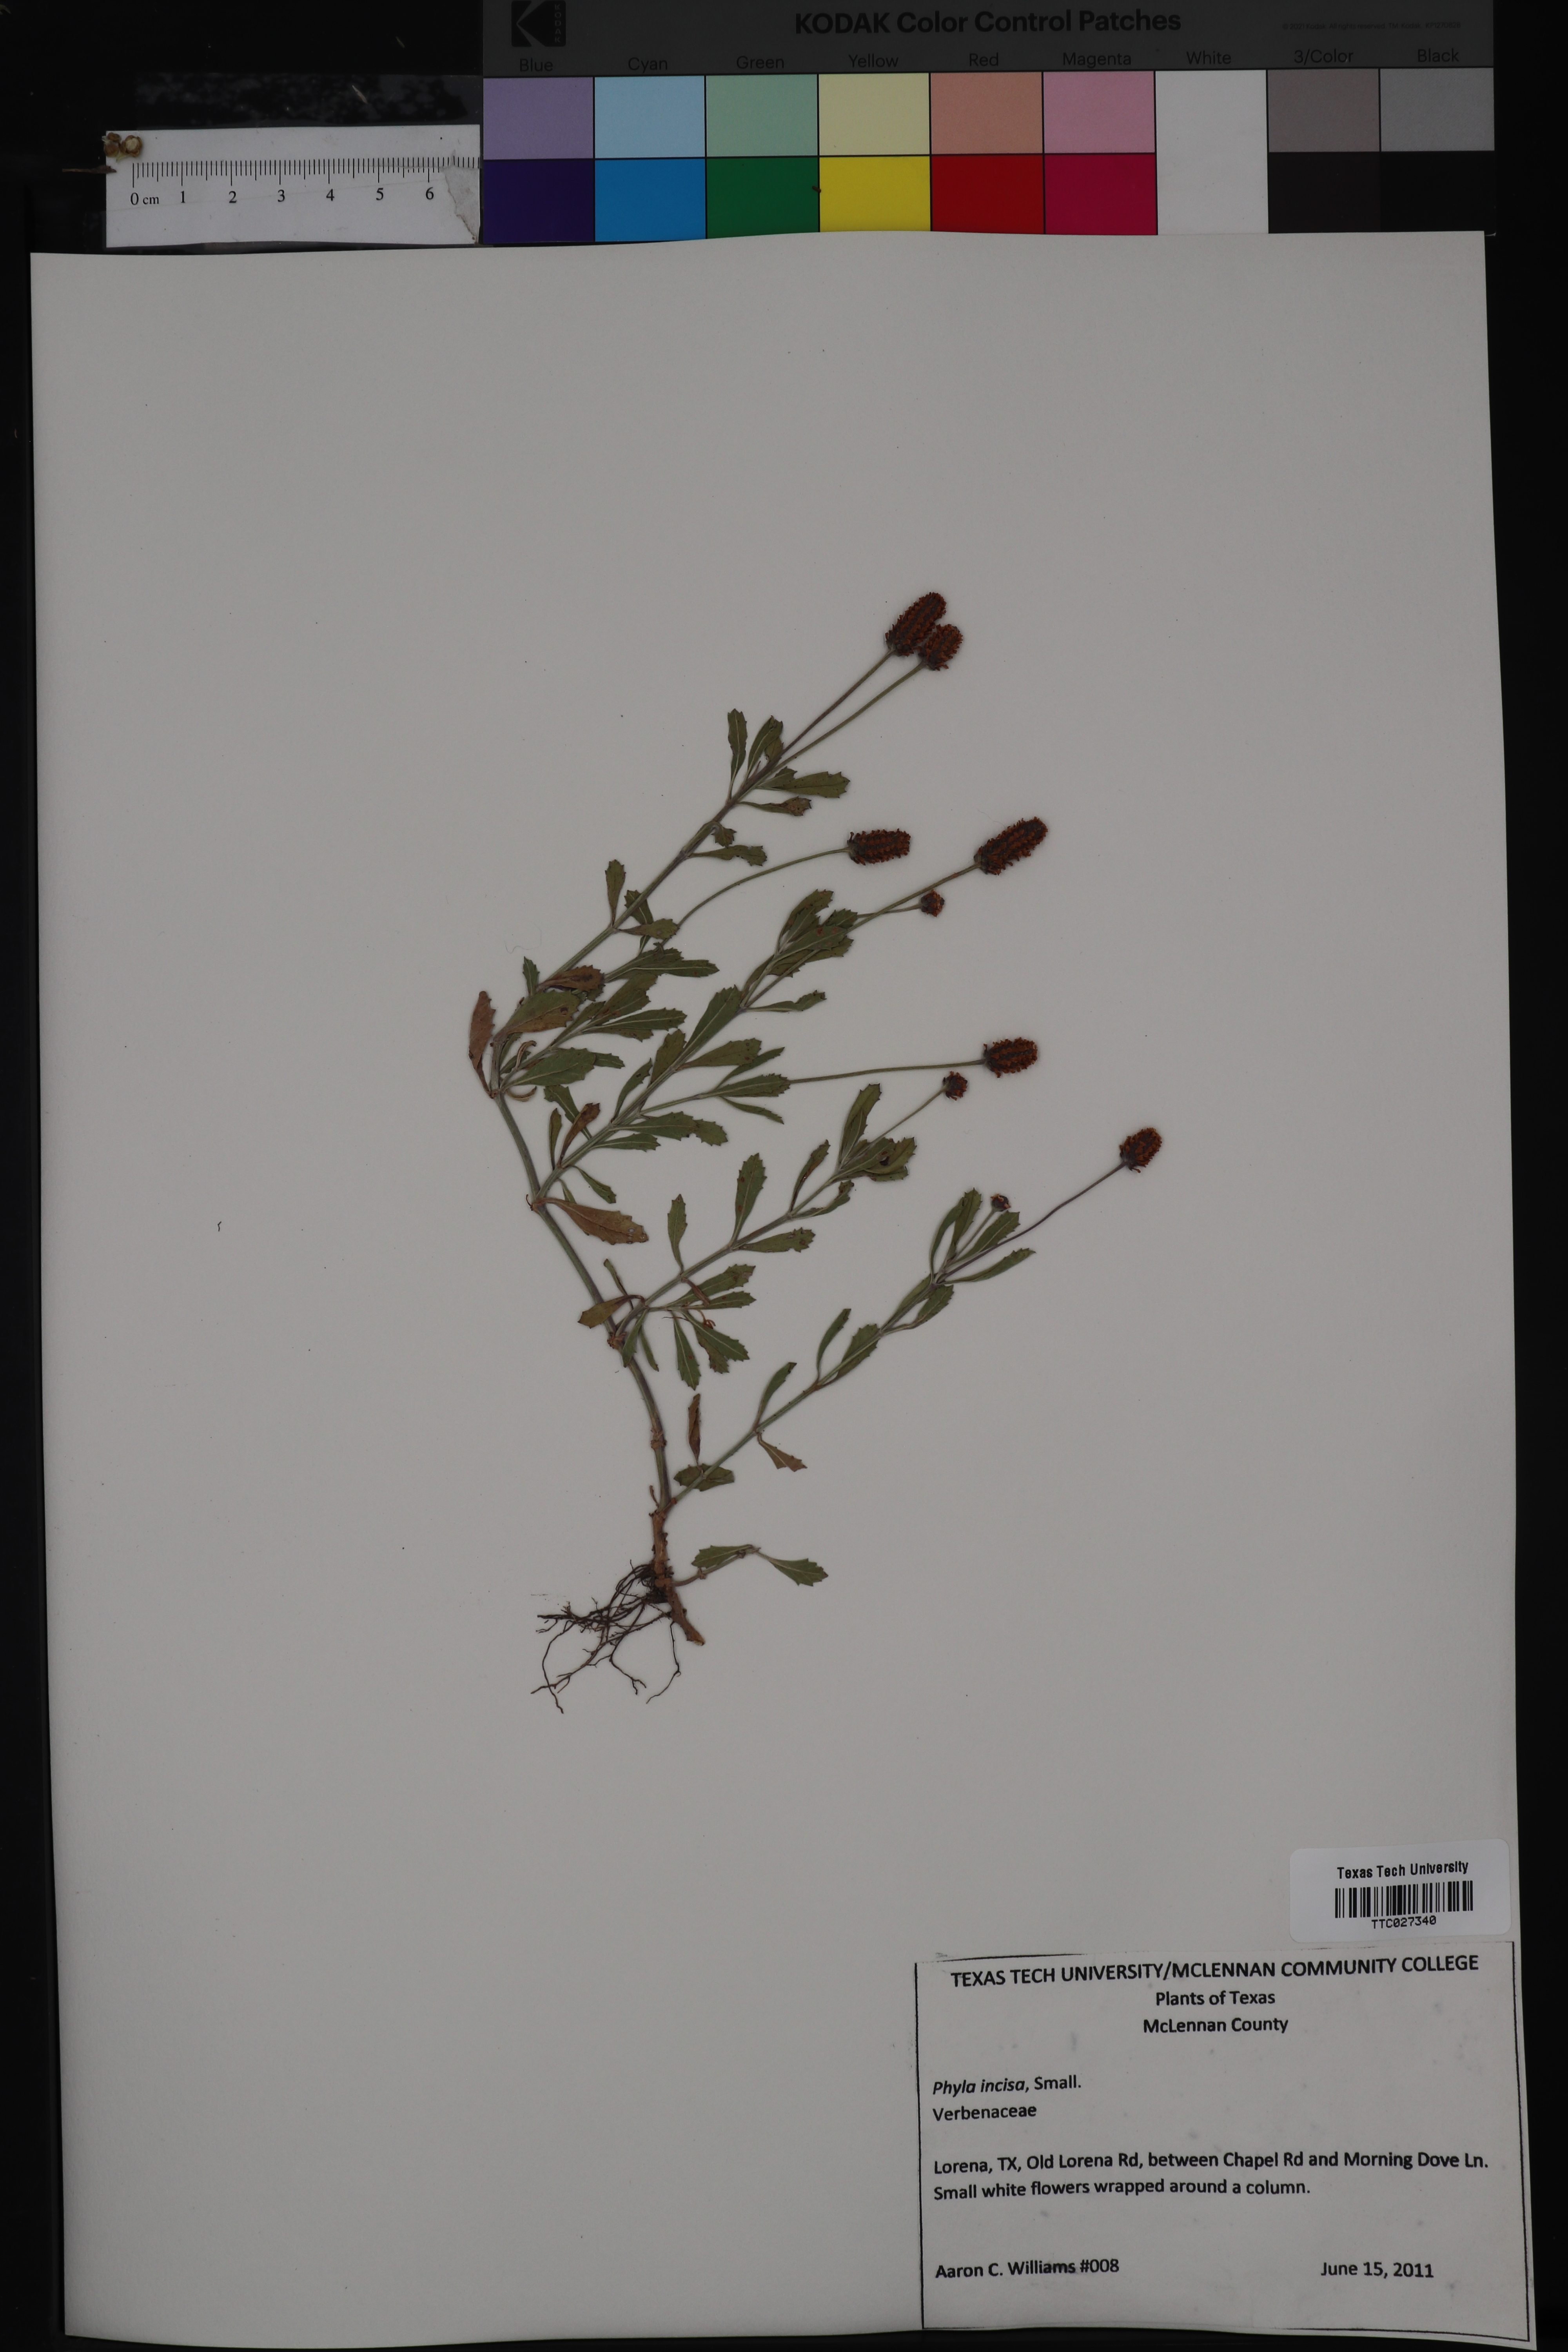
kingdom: Plantae
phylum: Tracheophyta
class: Magnoliopsida
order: Caryophyllales
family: Polygonaceae
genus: Eriogonum
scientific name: Eriogonum hieraciifolium
